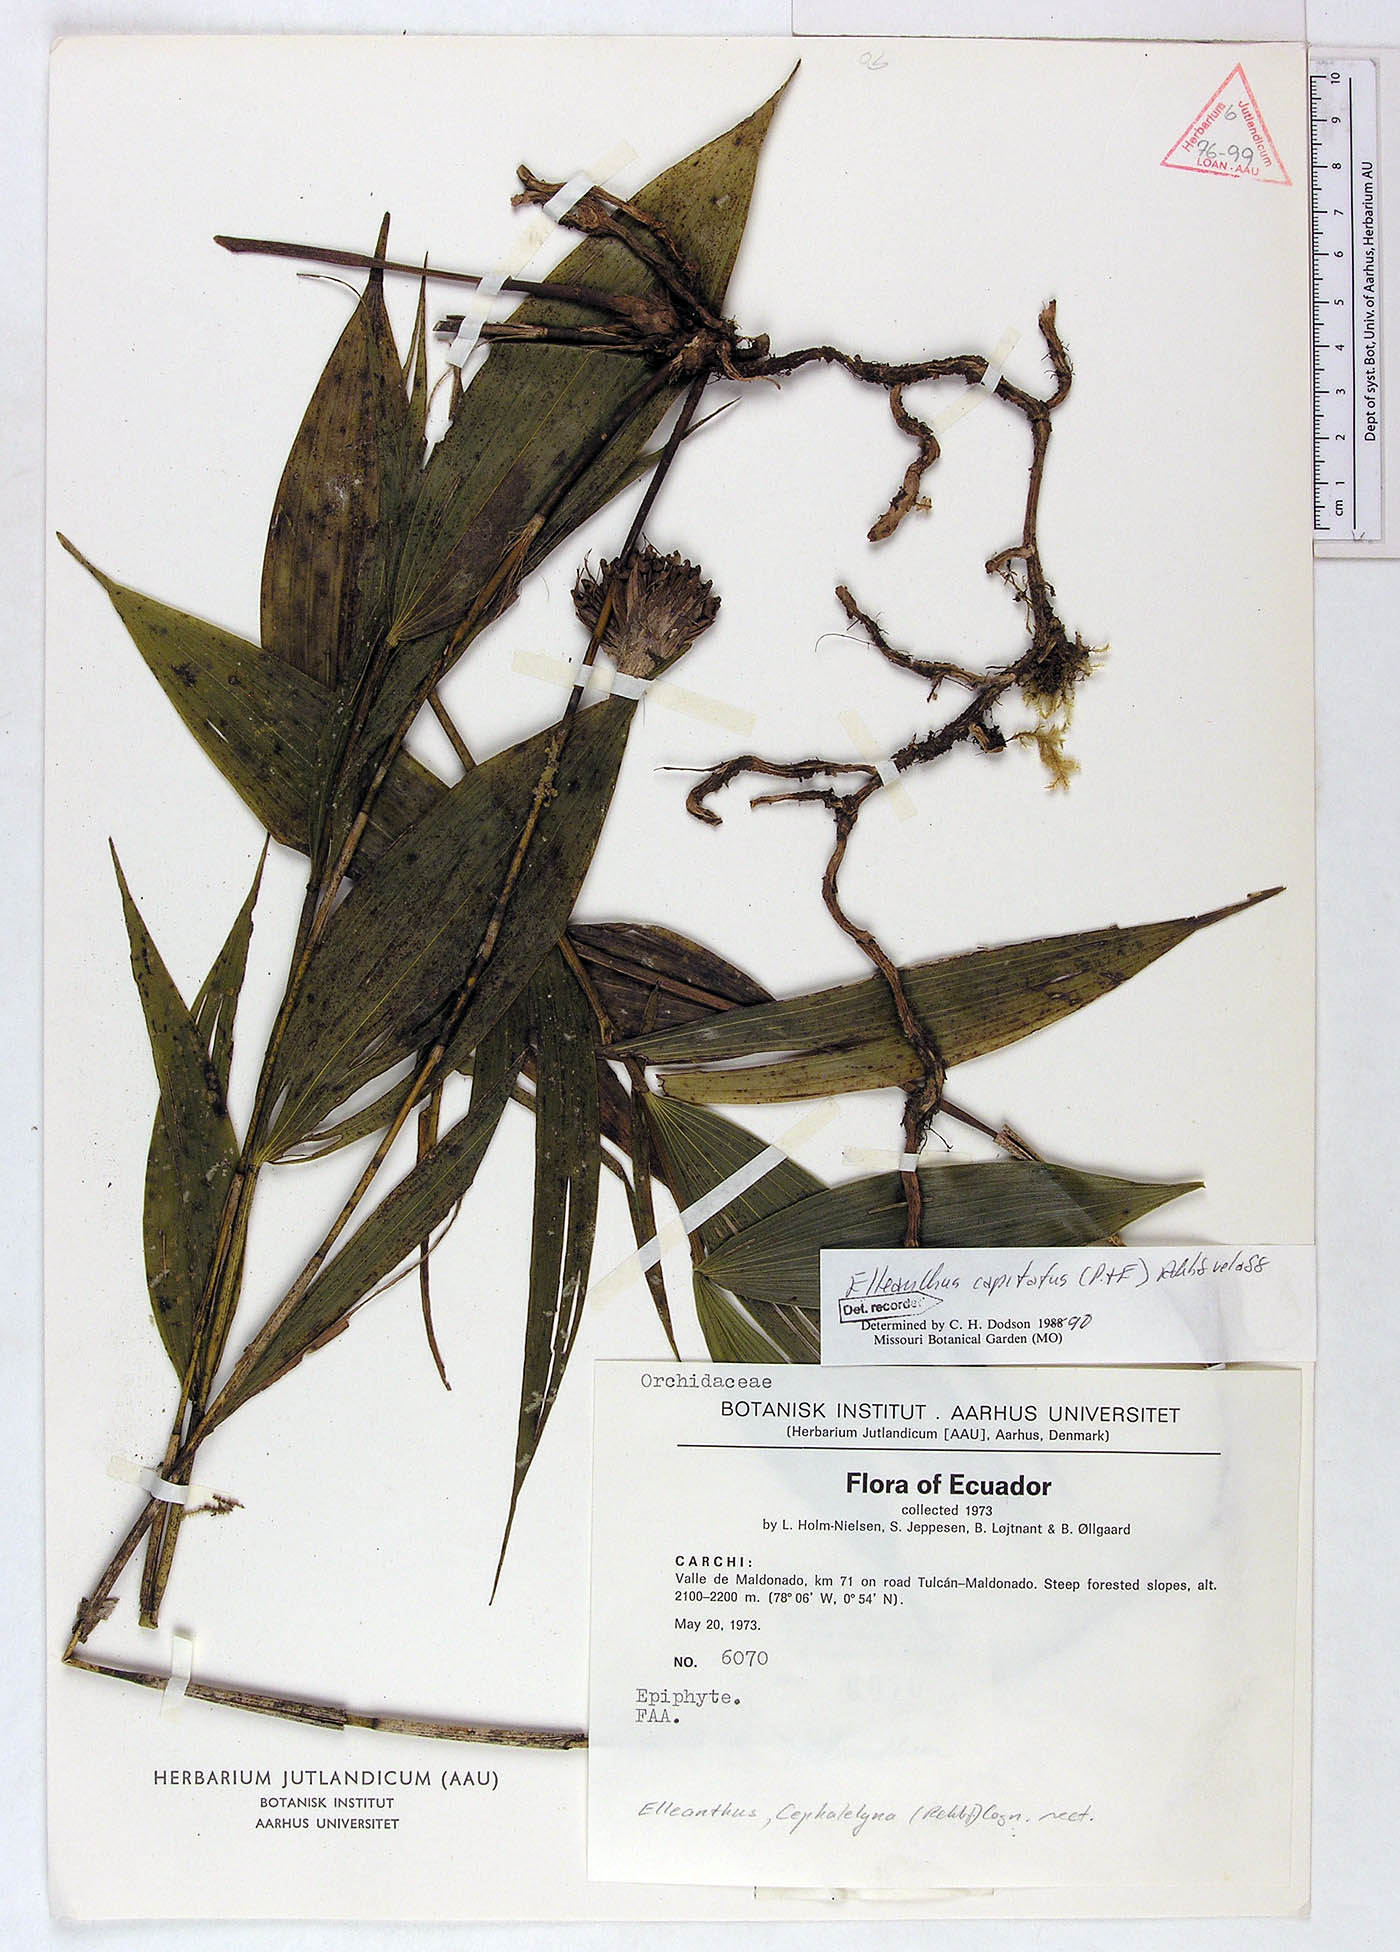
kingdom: Plantae
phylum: Tracheophyta
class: Liliopsida
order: Asparagales
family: Orchidaceae
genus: Elleanthus
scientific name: Elleanthus capitatus
